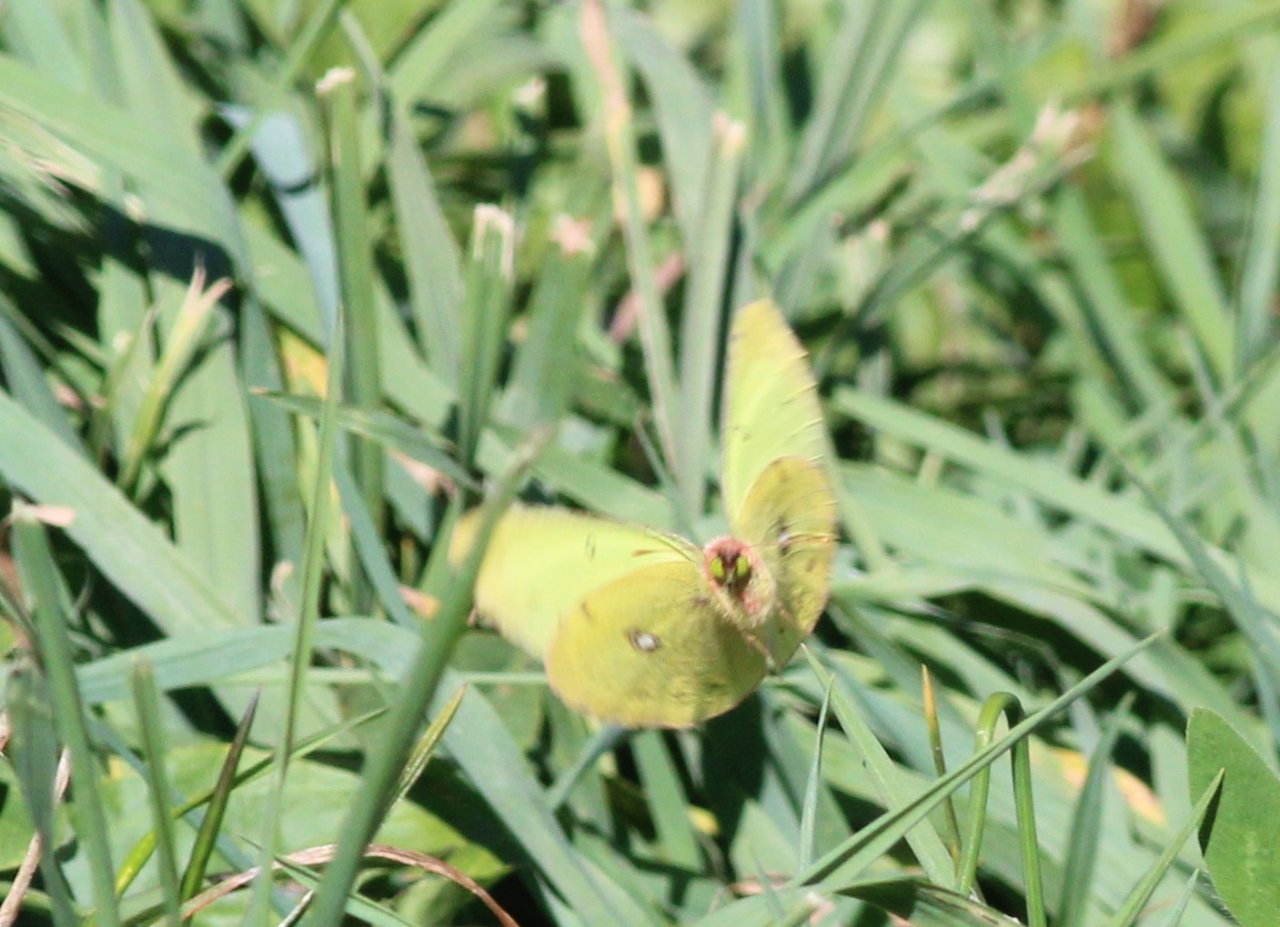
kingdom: Animalia
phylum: Arthropoda
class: Insecta
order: Lepidoptera
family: Pieridae
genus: Colias
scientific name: Colias philodice
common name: Clouded Sulphur
